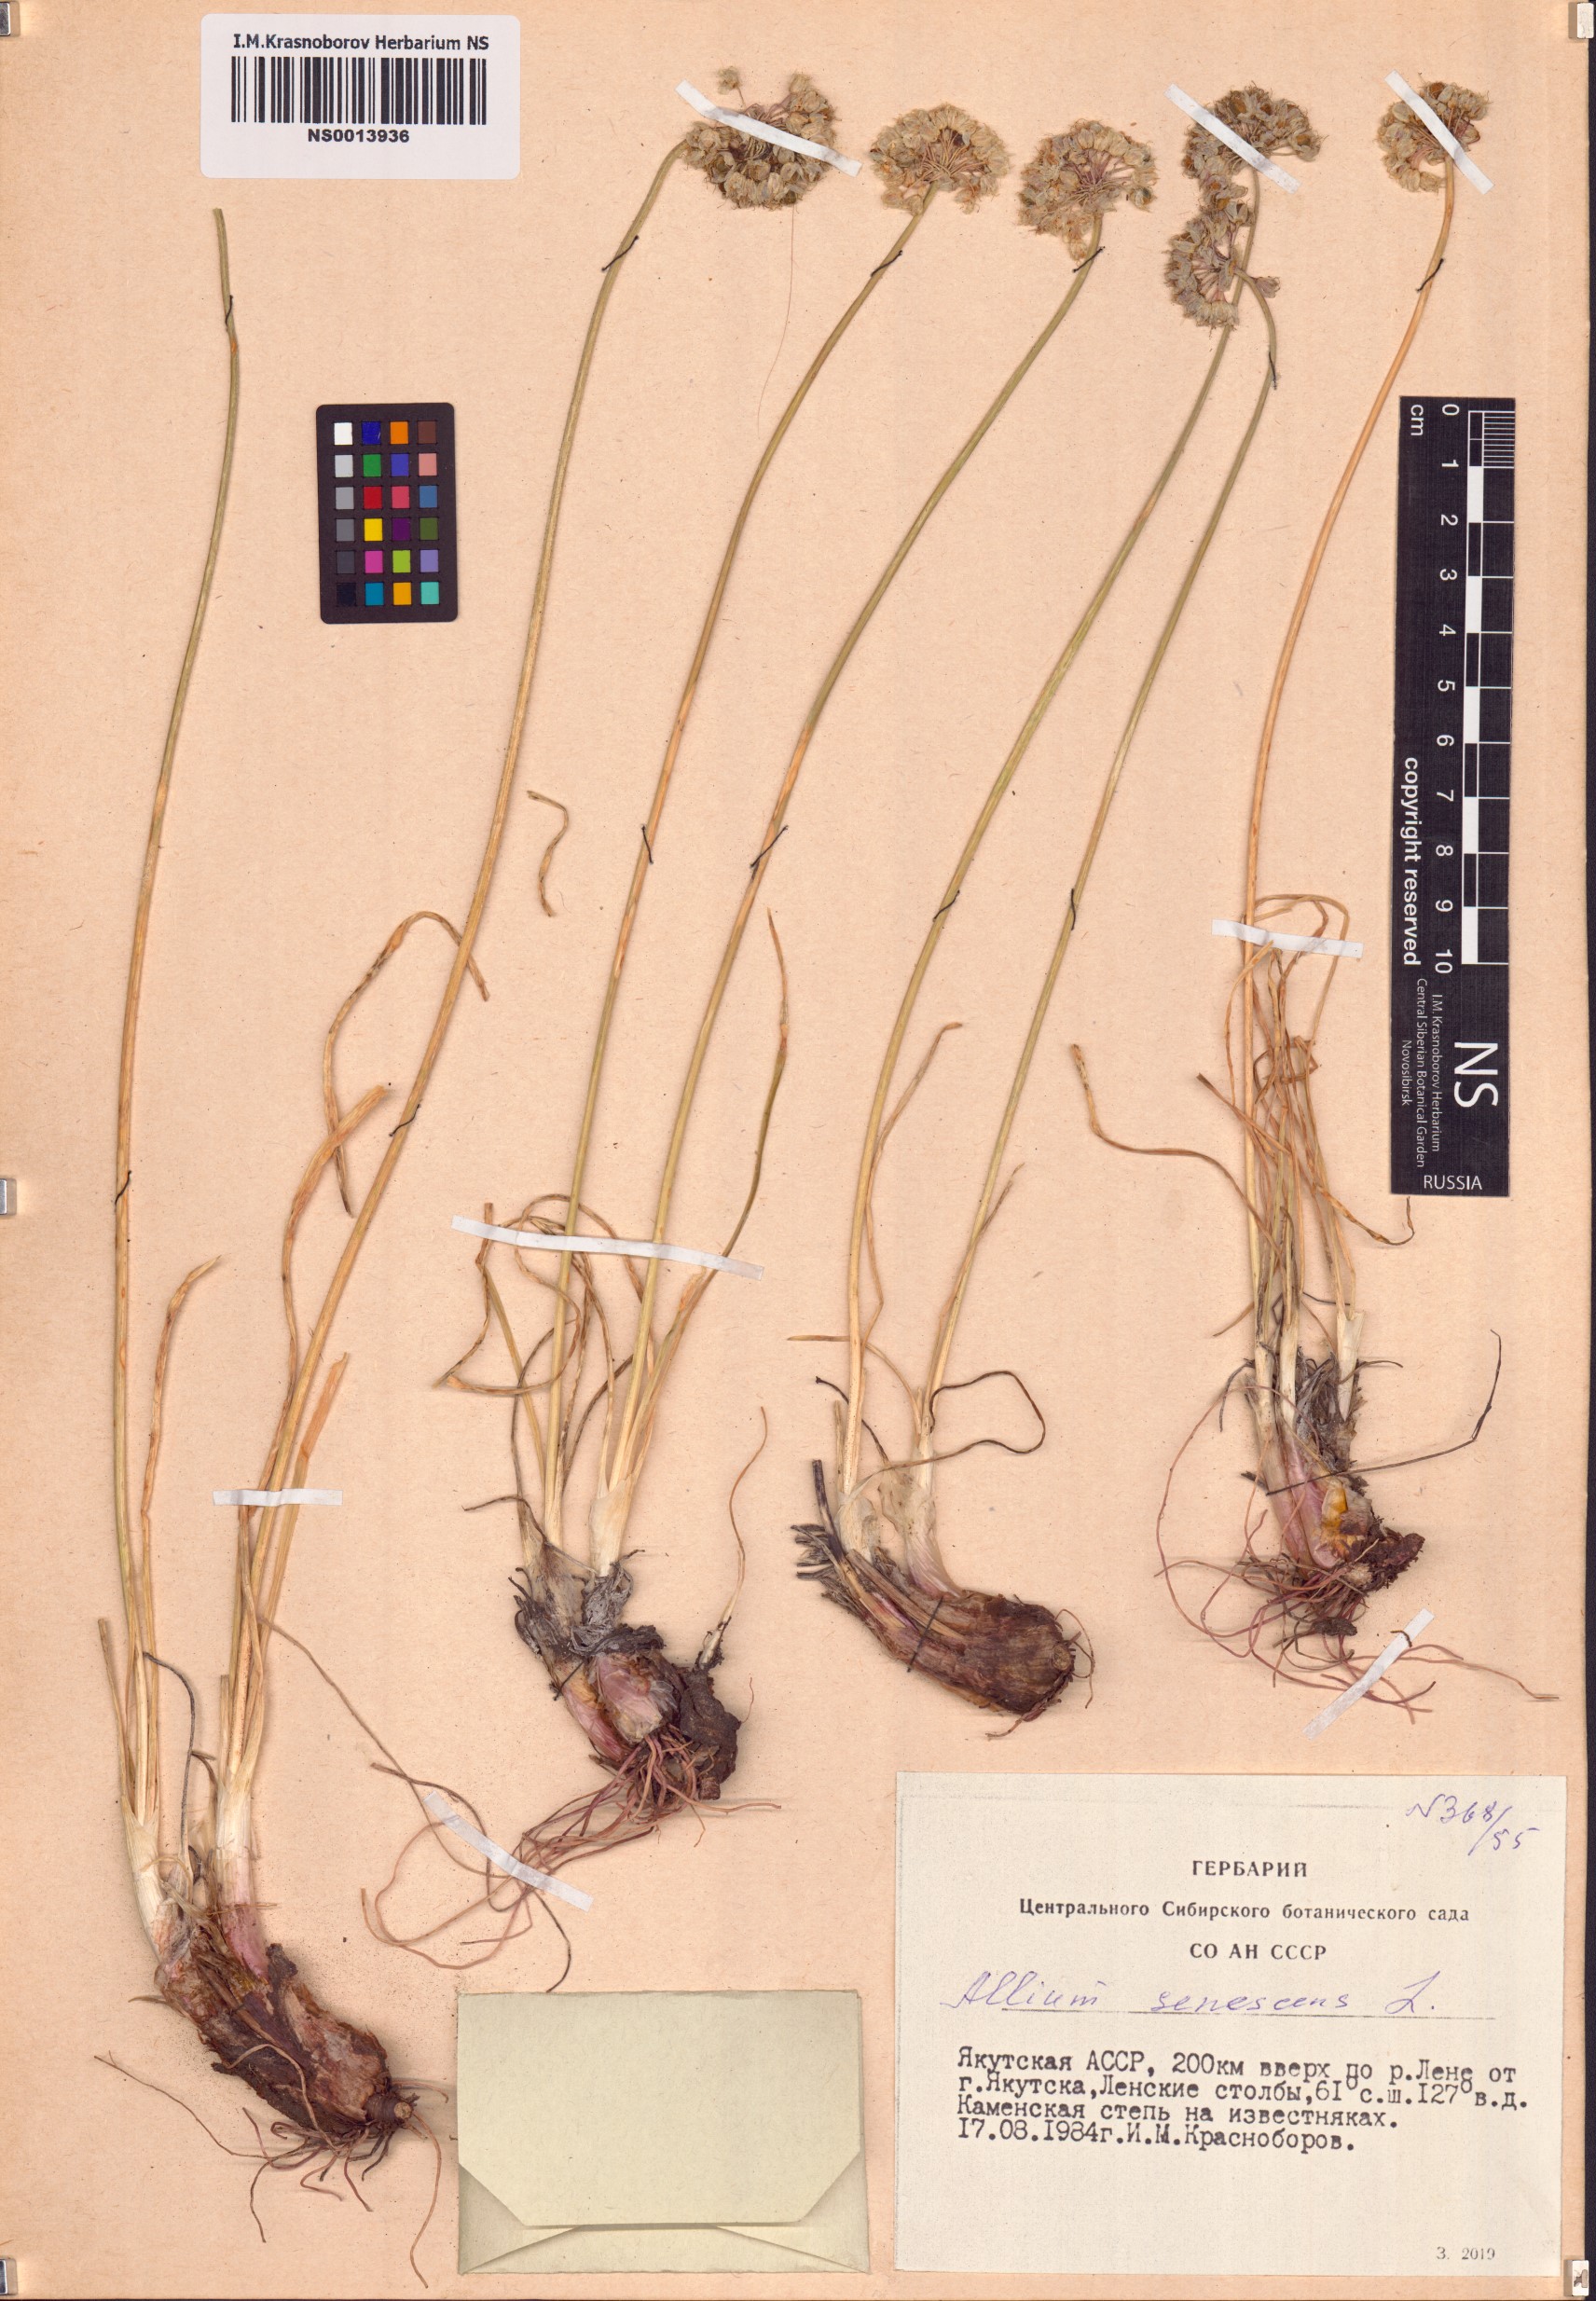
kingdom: Plantae
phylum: Tracheophyta
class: Liliopsida
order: Asparagales
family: Amaryllidaceae
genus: Allium
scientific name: Allium senescens
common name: German garlic
